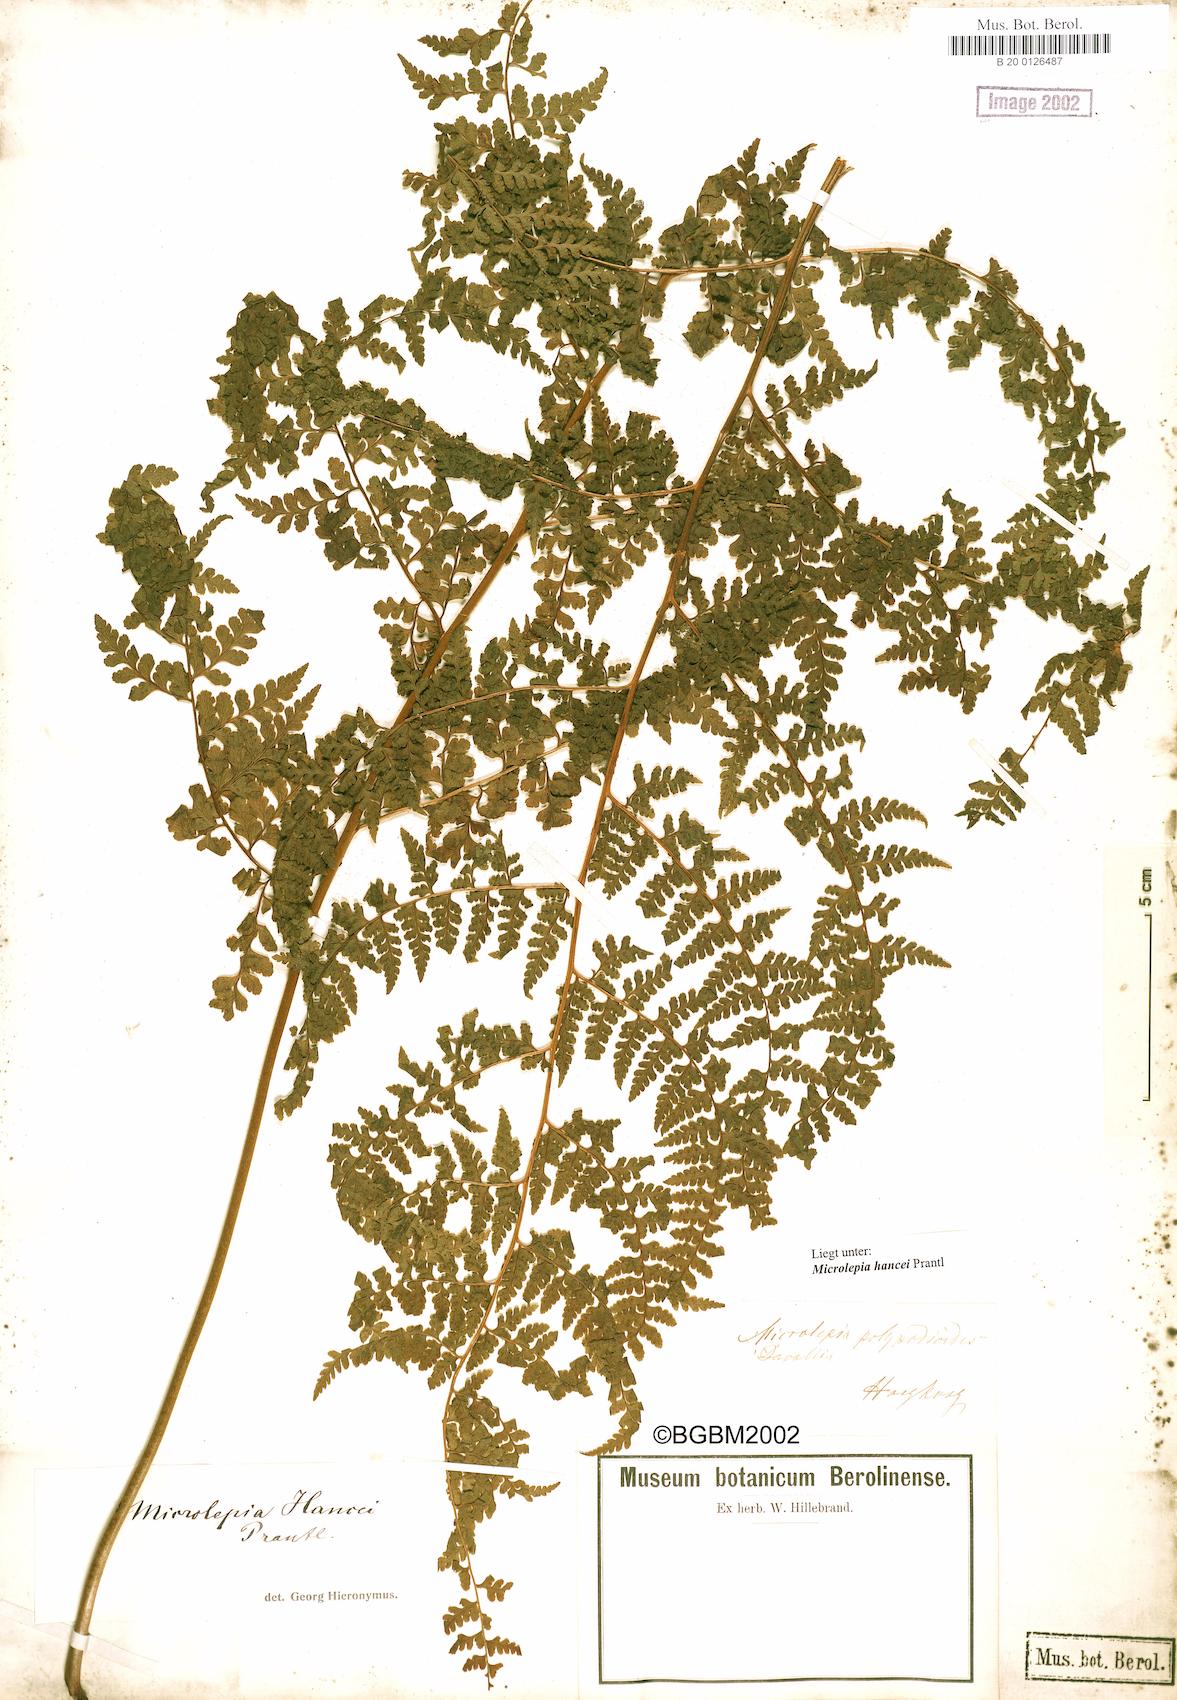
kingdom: Plantae
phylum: Tracheophyta
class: Polypodiopsida
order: Polypodiales
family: Dennstaedtiaceae
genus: Microlepia
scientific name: Microlepia nepalensis
